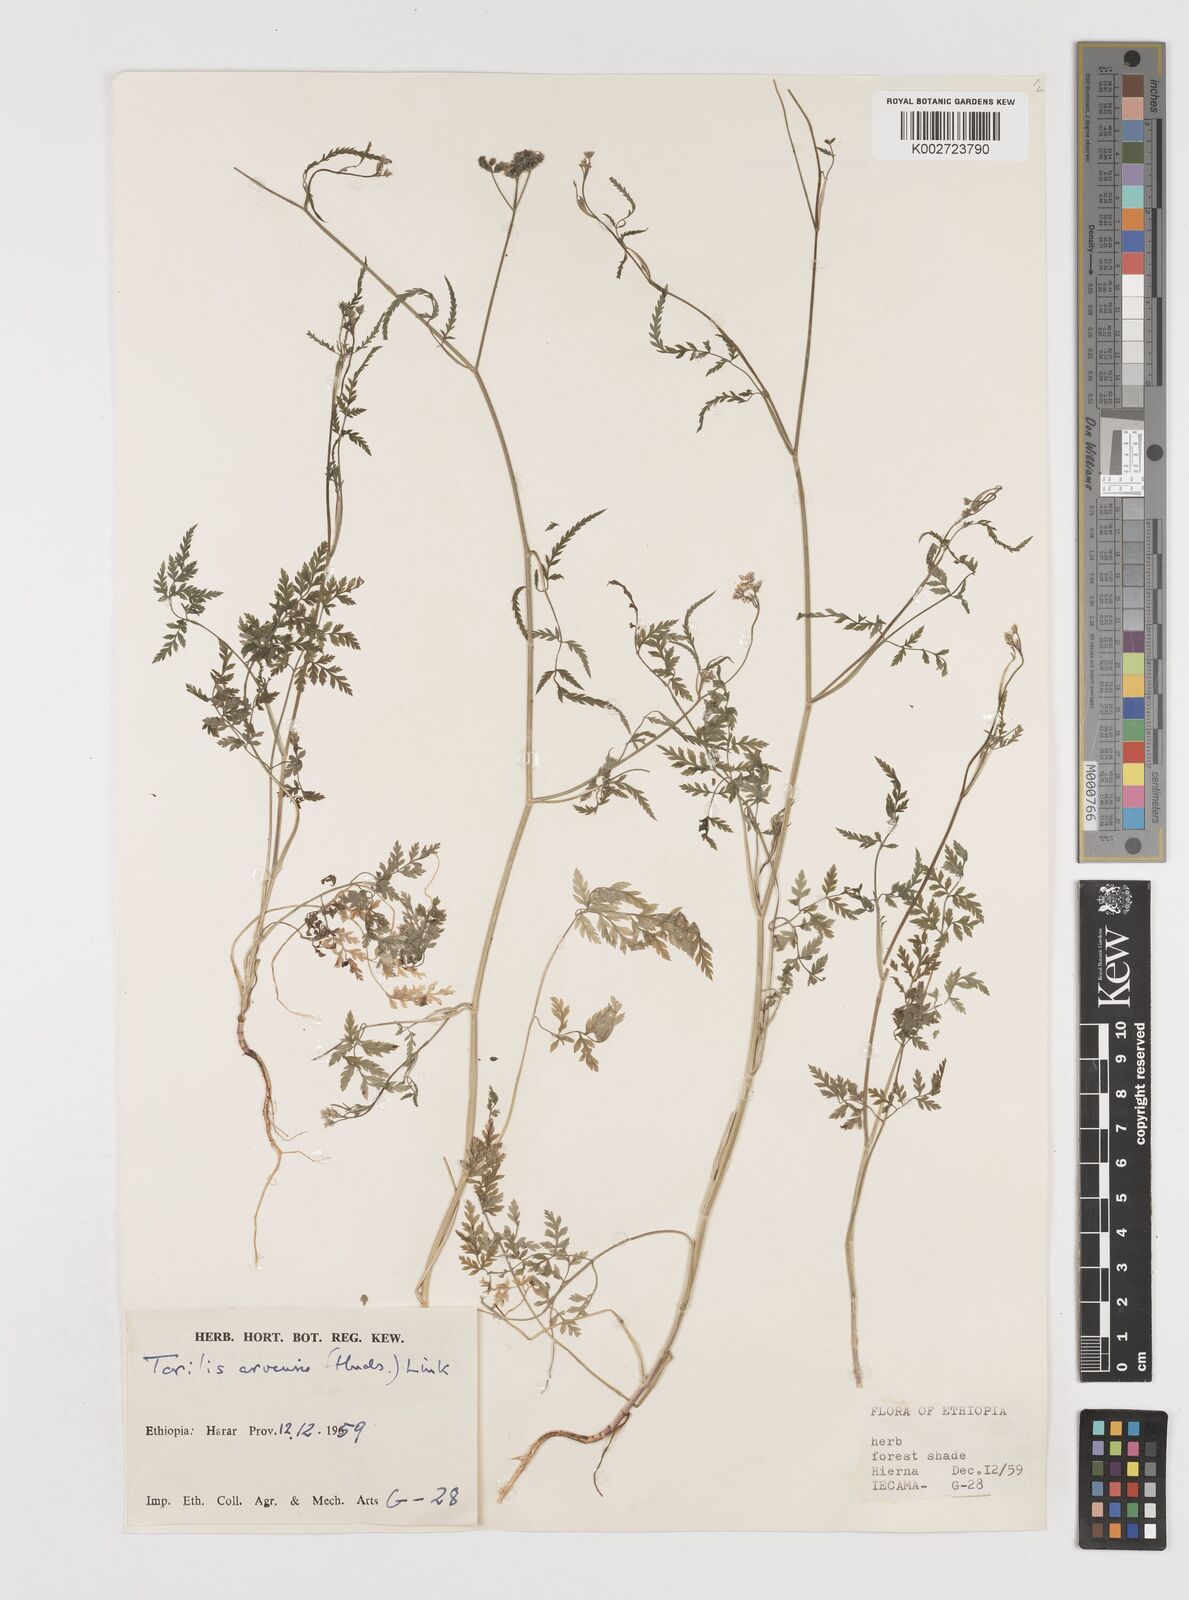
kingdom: Plantae
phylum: Tracheophyta
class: Magnoliopsida
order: Apiales
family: Apiaceae
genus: Torilis
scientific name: Torilis arvensis
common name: Spreading hedge-parsley
